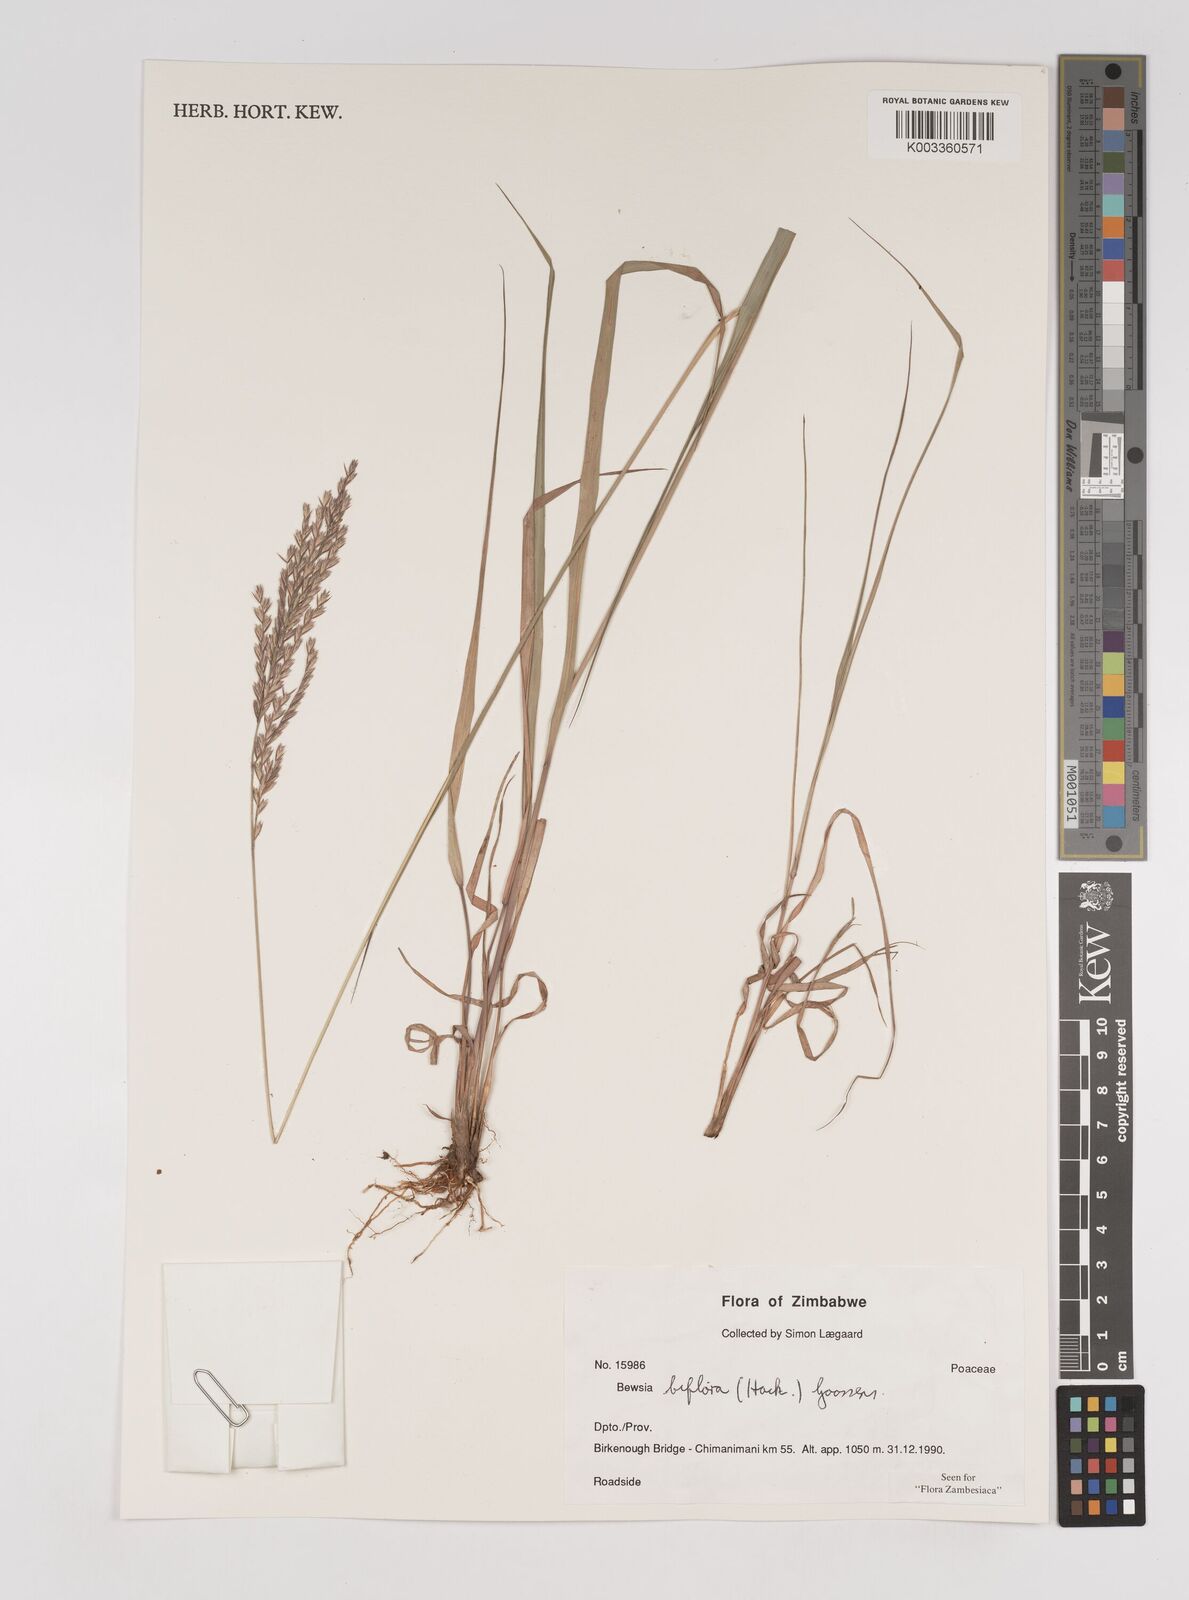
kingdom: Plantae
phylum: Tracheophyta
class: Liliopsida
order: Poales
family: Poaceae
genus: Bewsia
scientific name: Bewsia biflora
